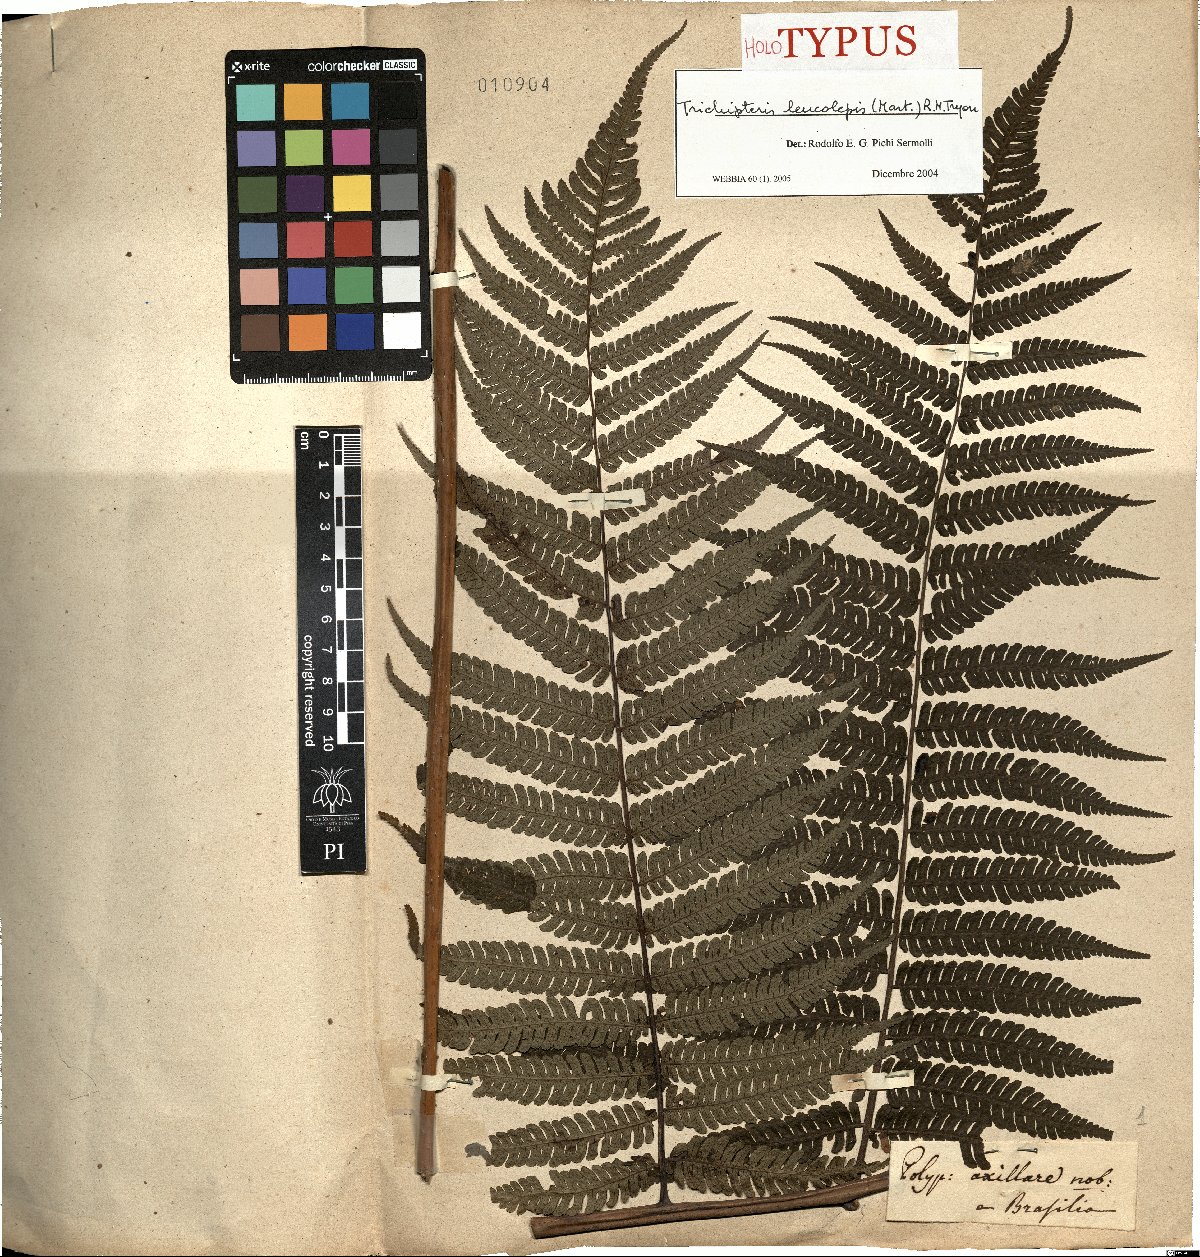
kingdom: Plantae
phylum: Tracheophyta
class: Polypodiopsida
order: Cyatheales
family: Cyatheaceae
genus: Cyathea
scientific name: Cyathea axillaris
